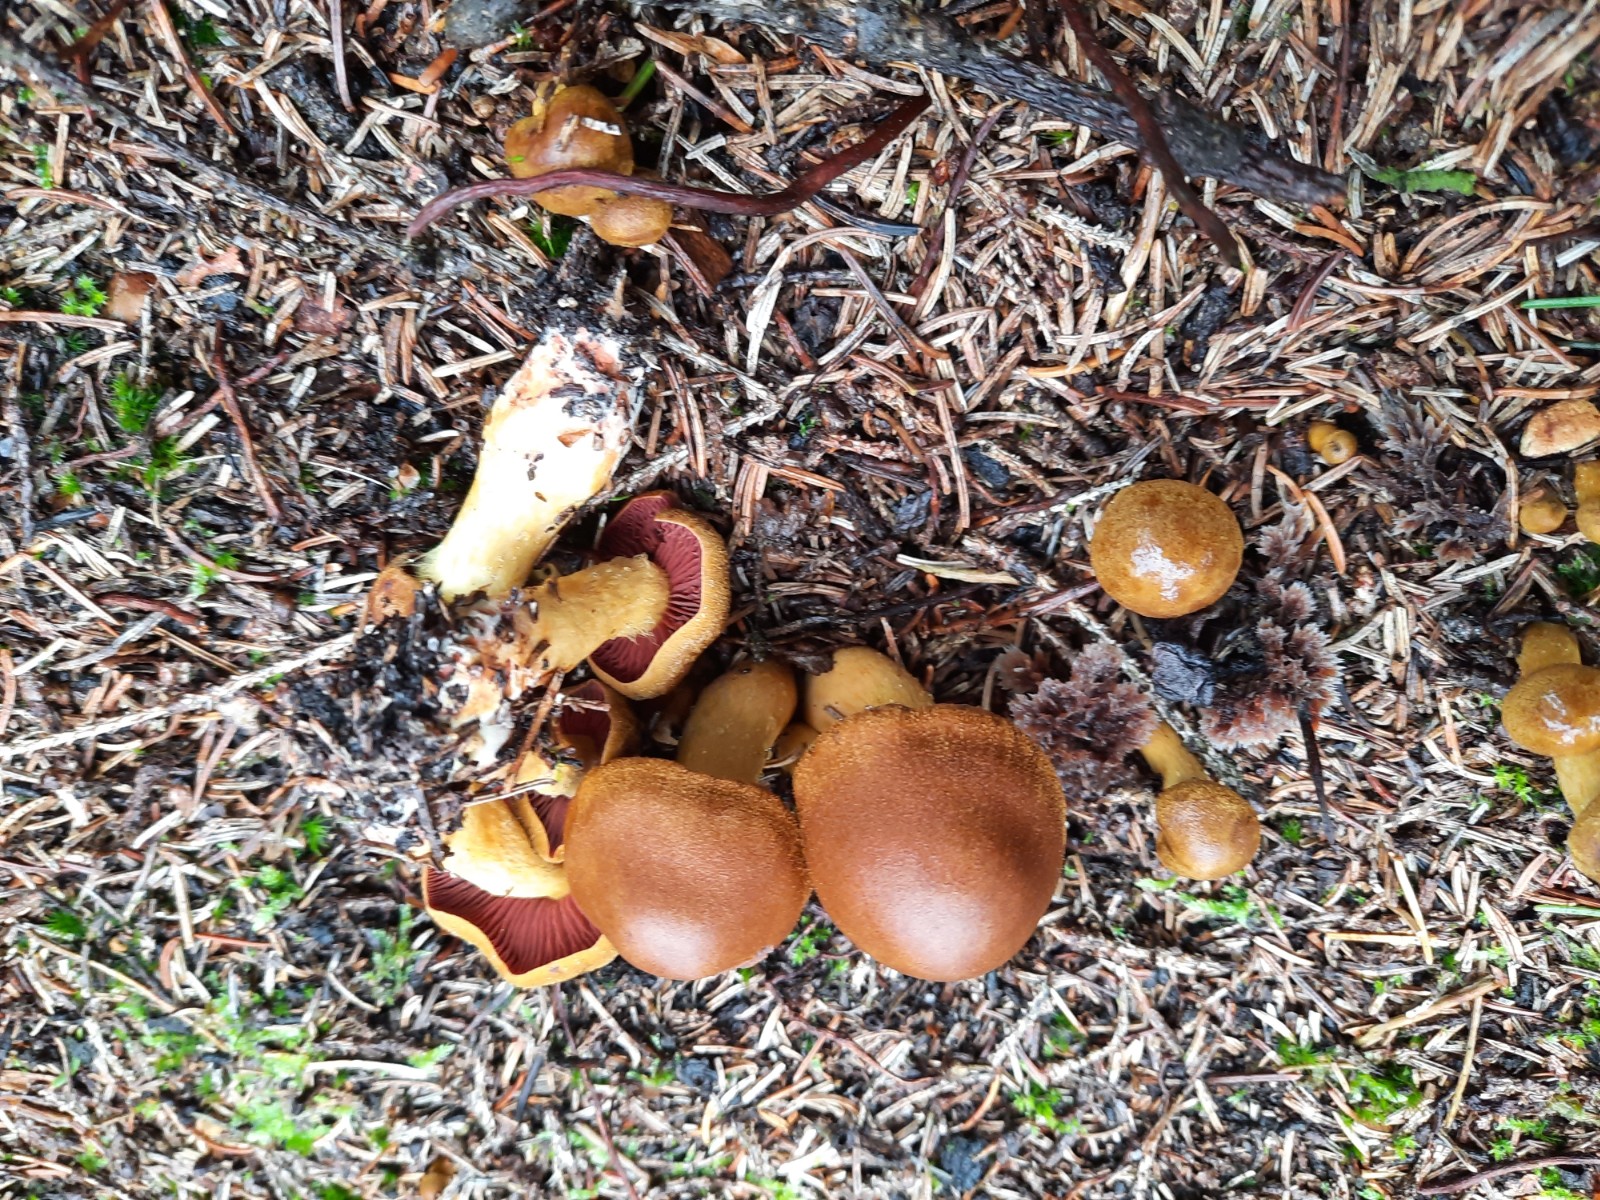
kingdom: Fungi
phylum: Basidiomycota
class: Agaricomycetes
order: Agaricales
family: Cortinariaceae
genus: Cortinarius
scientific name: Cortinarius
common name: cinnoberbladet slørhat
